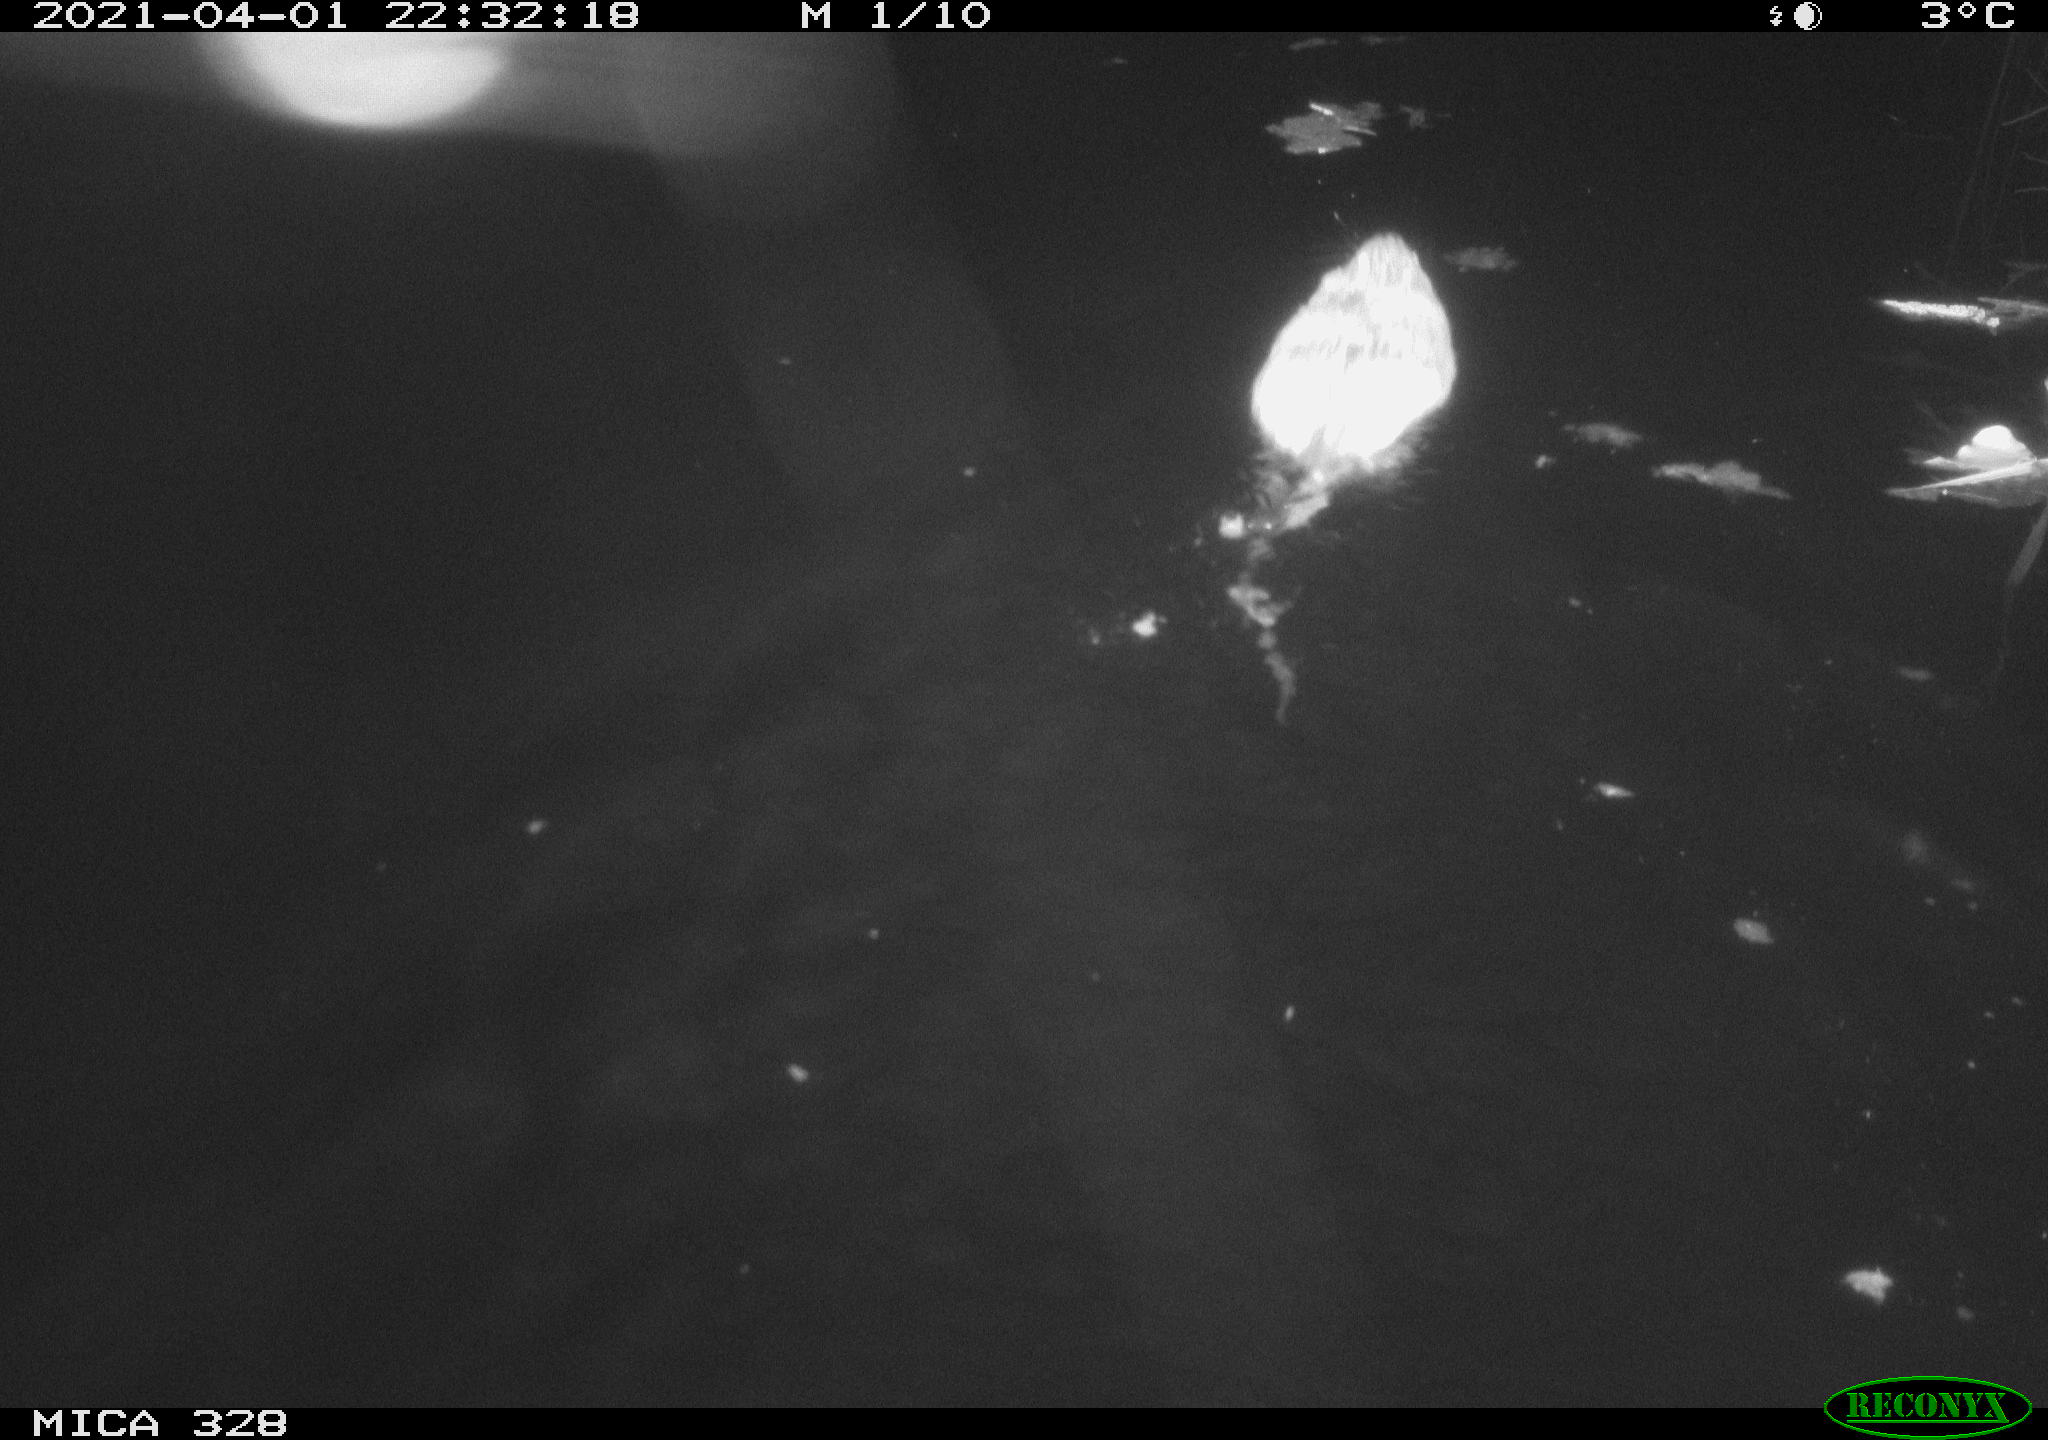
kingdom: Animalia
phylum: Chordata
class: Mammalia
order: Rodentia
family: Cricetidae
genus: Ondatra
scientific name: Ondatra zibethicus
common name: Muskrat
